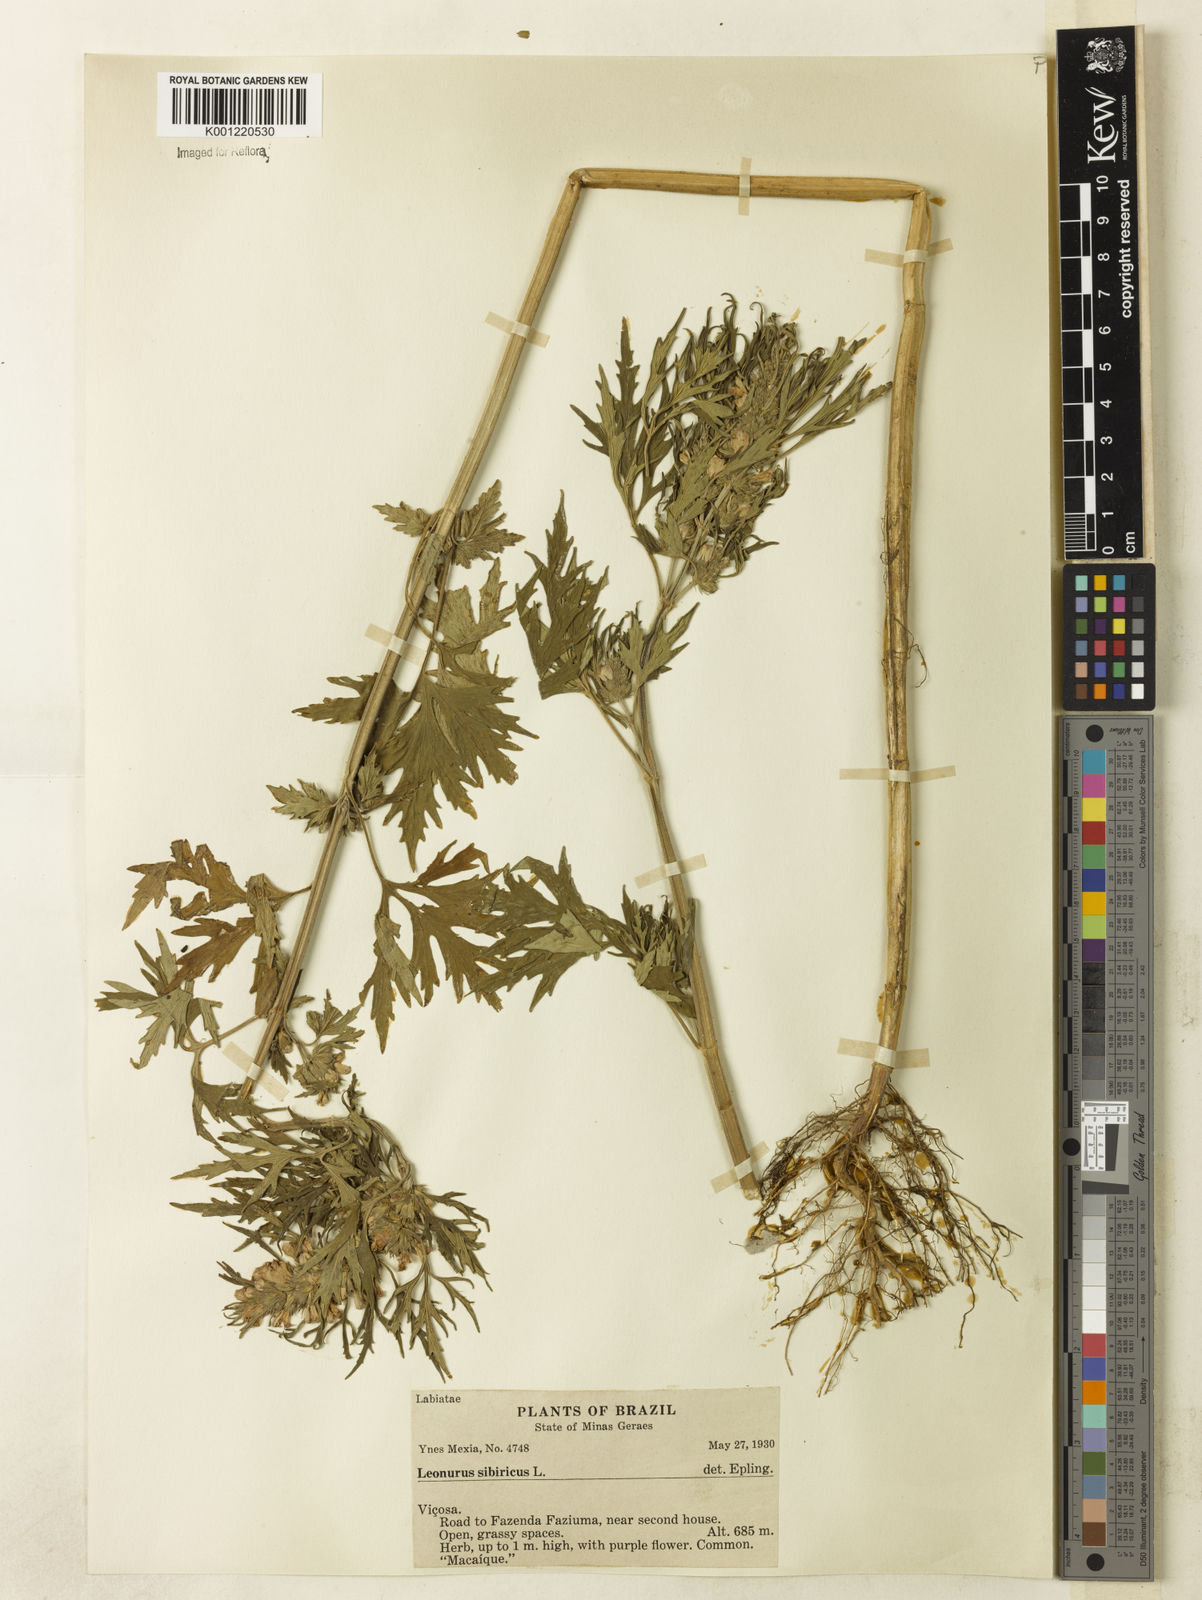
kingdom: Plantae
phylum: Tracheophyta
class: Magnoliopsida
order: Lamiales
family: Lamiaceae
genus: Leonurus
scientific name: Leonurus japonicus
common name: Honeyweed
